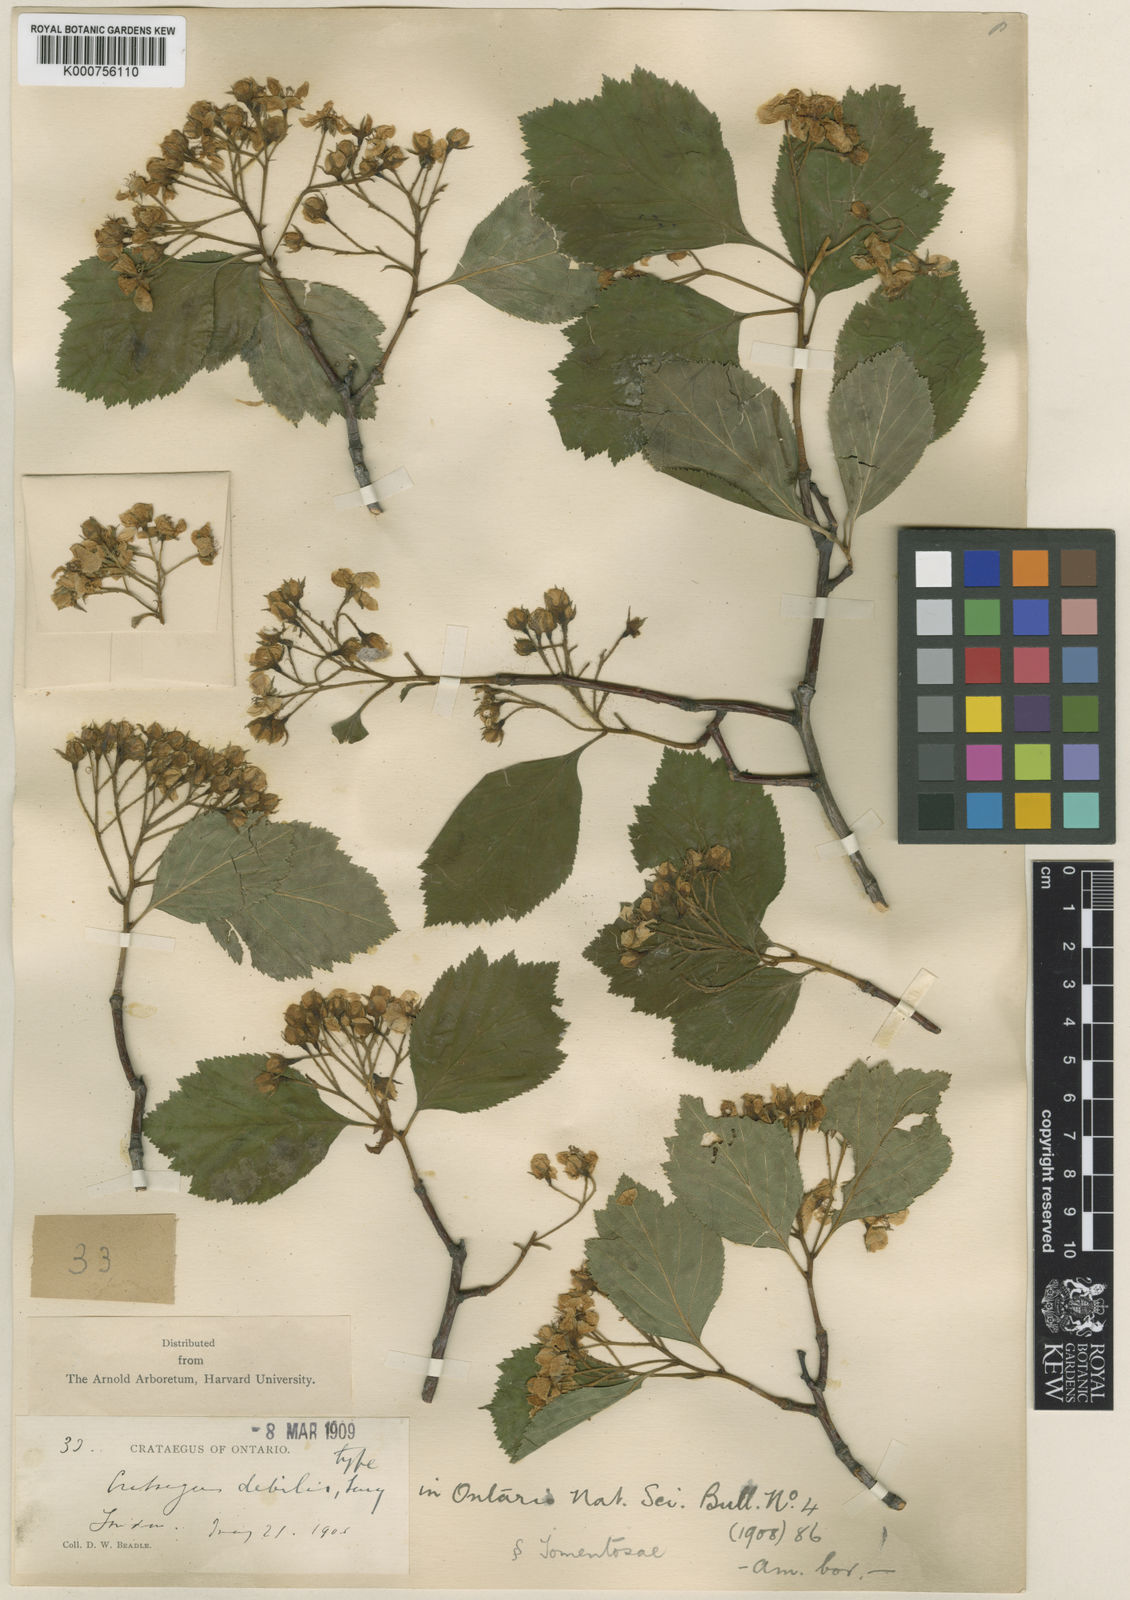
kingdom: Plantae
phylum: Tracheophyta
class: Magnoliopsida
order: Rosales
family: Rosaceae
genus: Crataegus
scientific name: Crataegus
